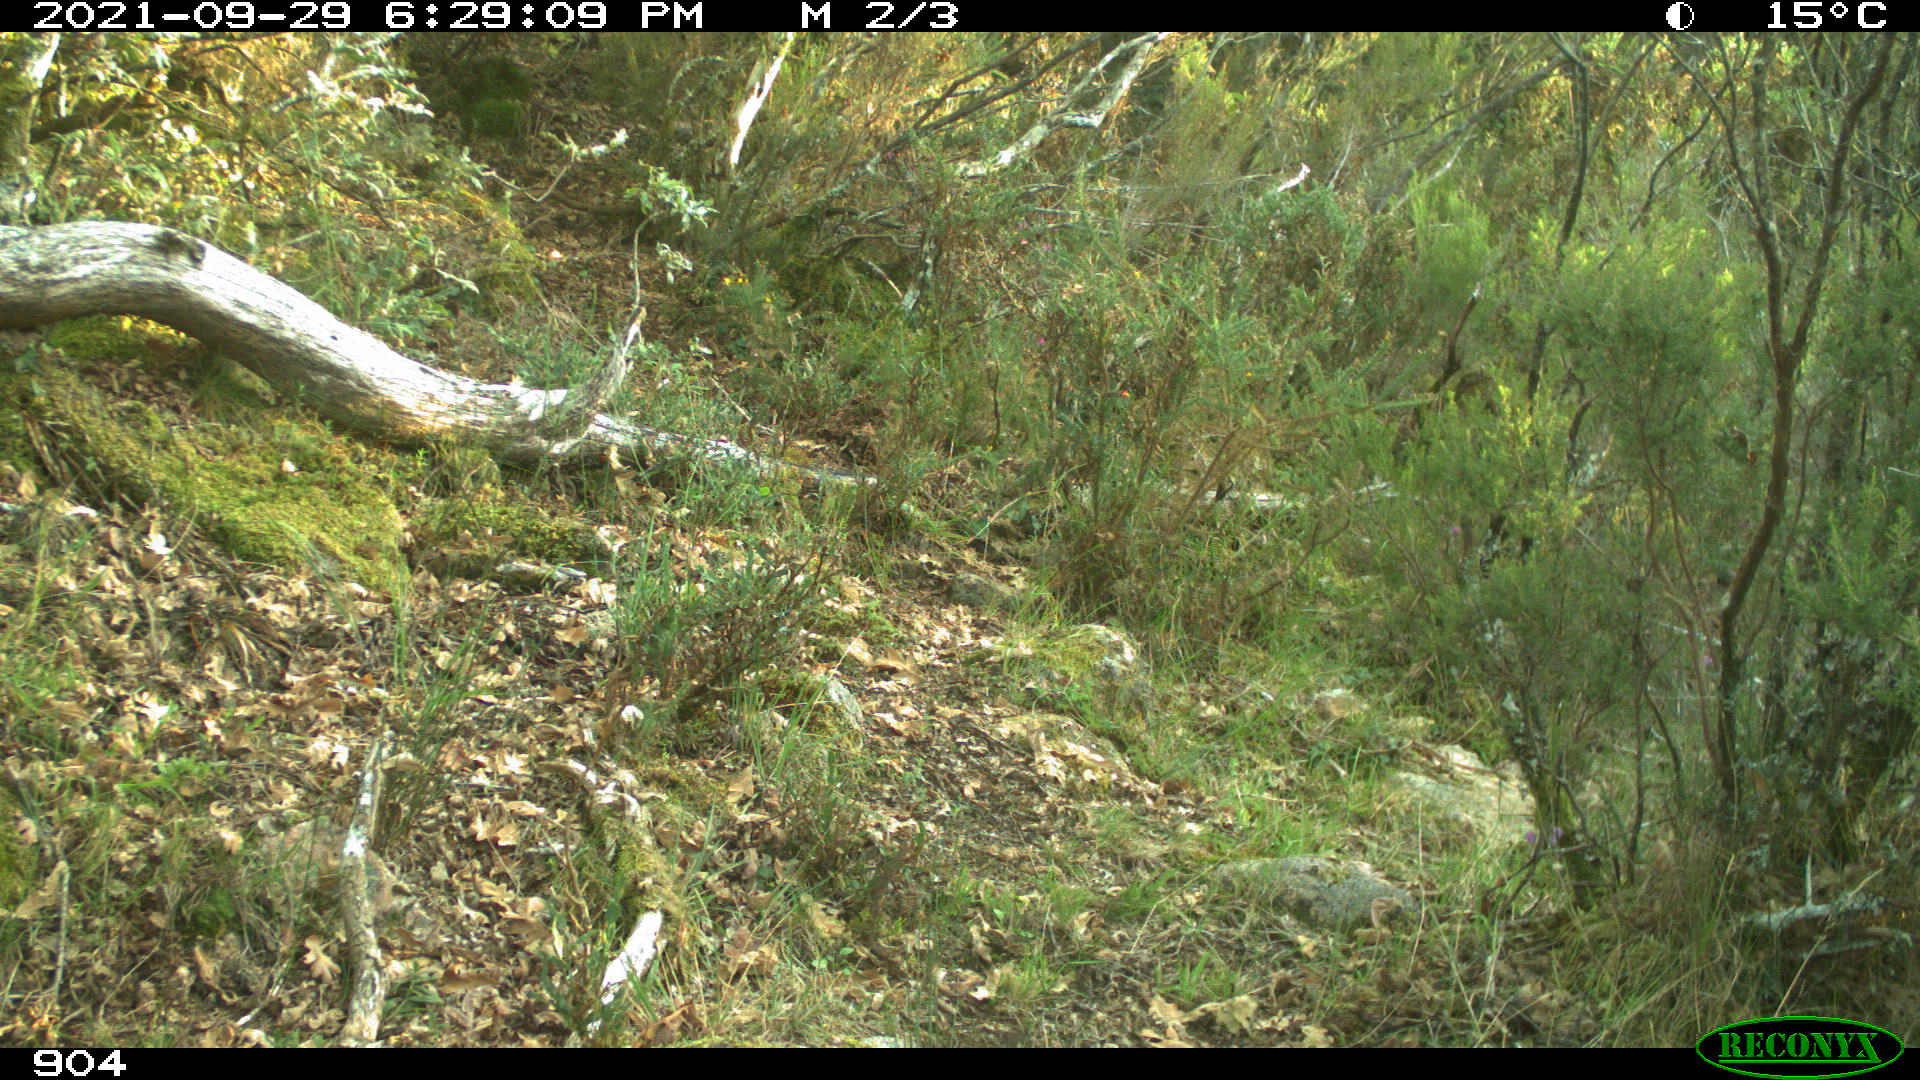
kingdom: Animalia
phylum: Chordata
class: Mammalia
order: Perissodactyla
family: Equidae
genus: Equus
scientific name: Equus caballus
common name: Horse
